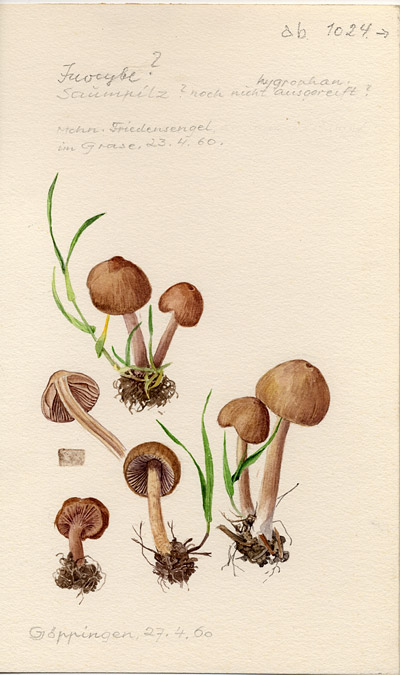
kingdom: Fungi
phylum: Basidiomycota
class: Agaricomycetes
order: Agaricales
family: Inocybaceae
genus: Inocybe
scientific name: Inocybe
